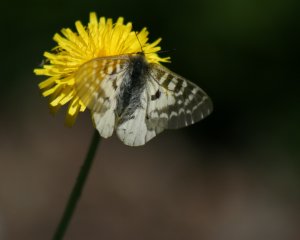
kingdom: Animalia
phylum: Arthropoda
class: Insecta
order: Lepidoptera
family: Papilionidae
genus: Parnassius
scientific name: Parnassius clodius
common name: Clodius Parnassian
